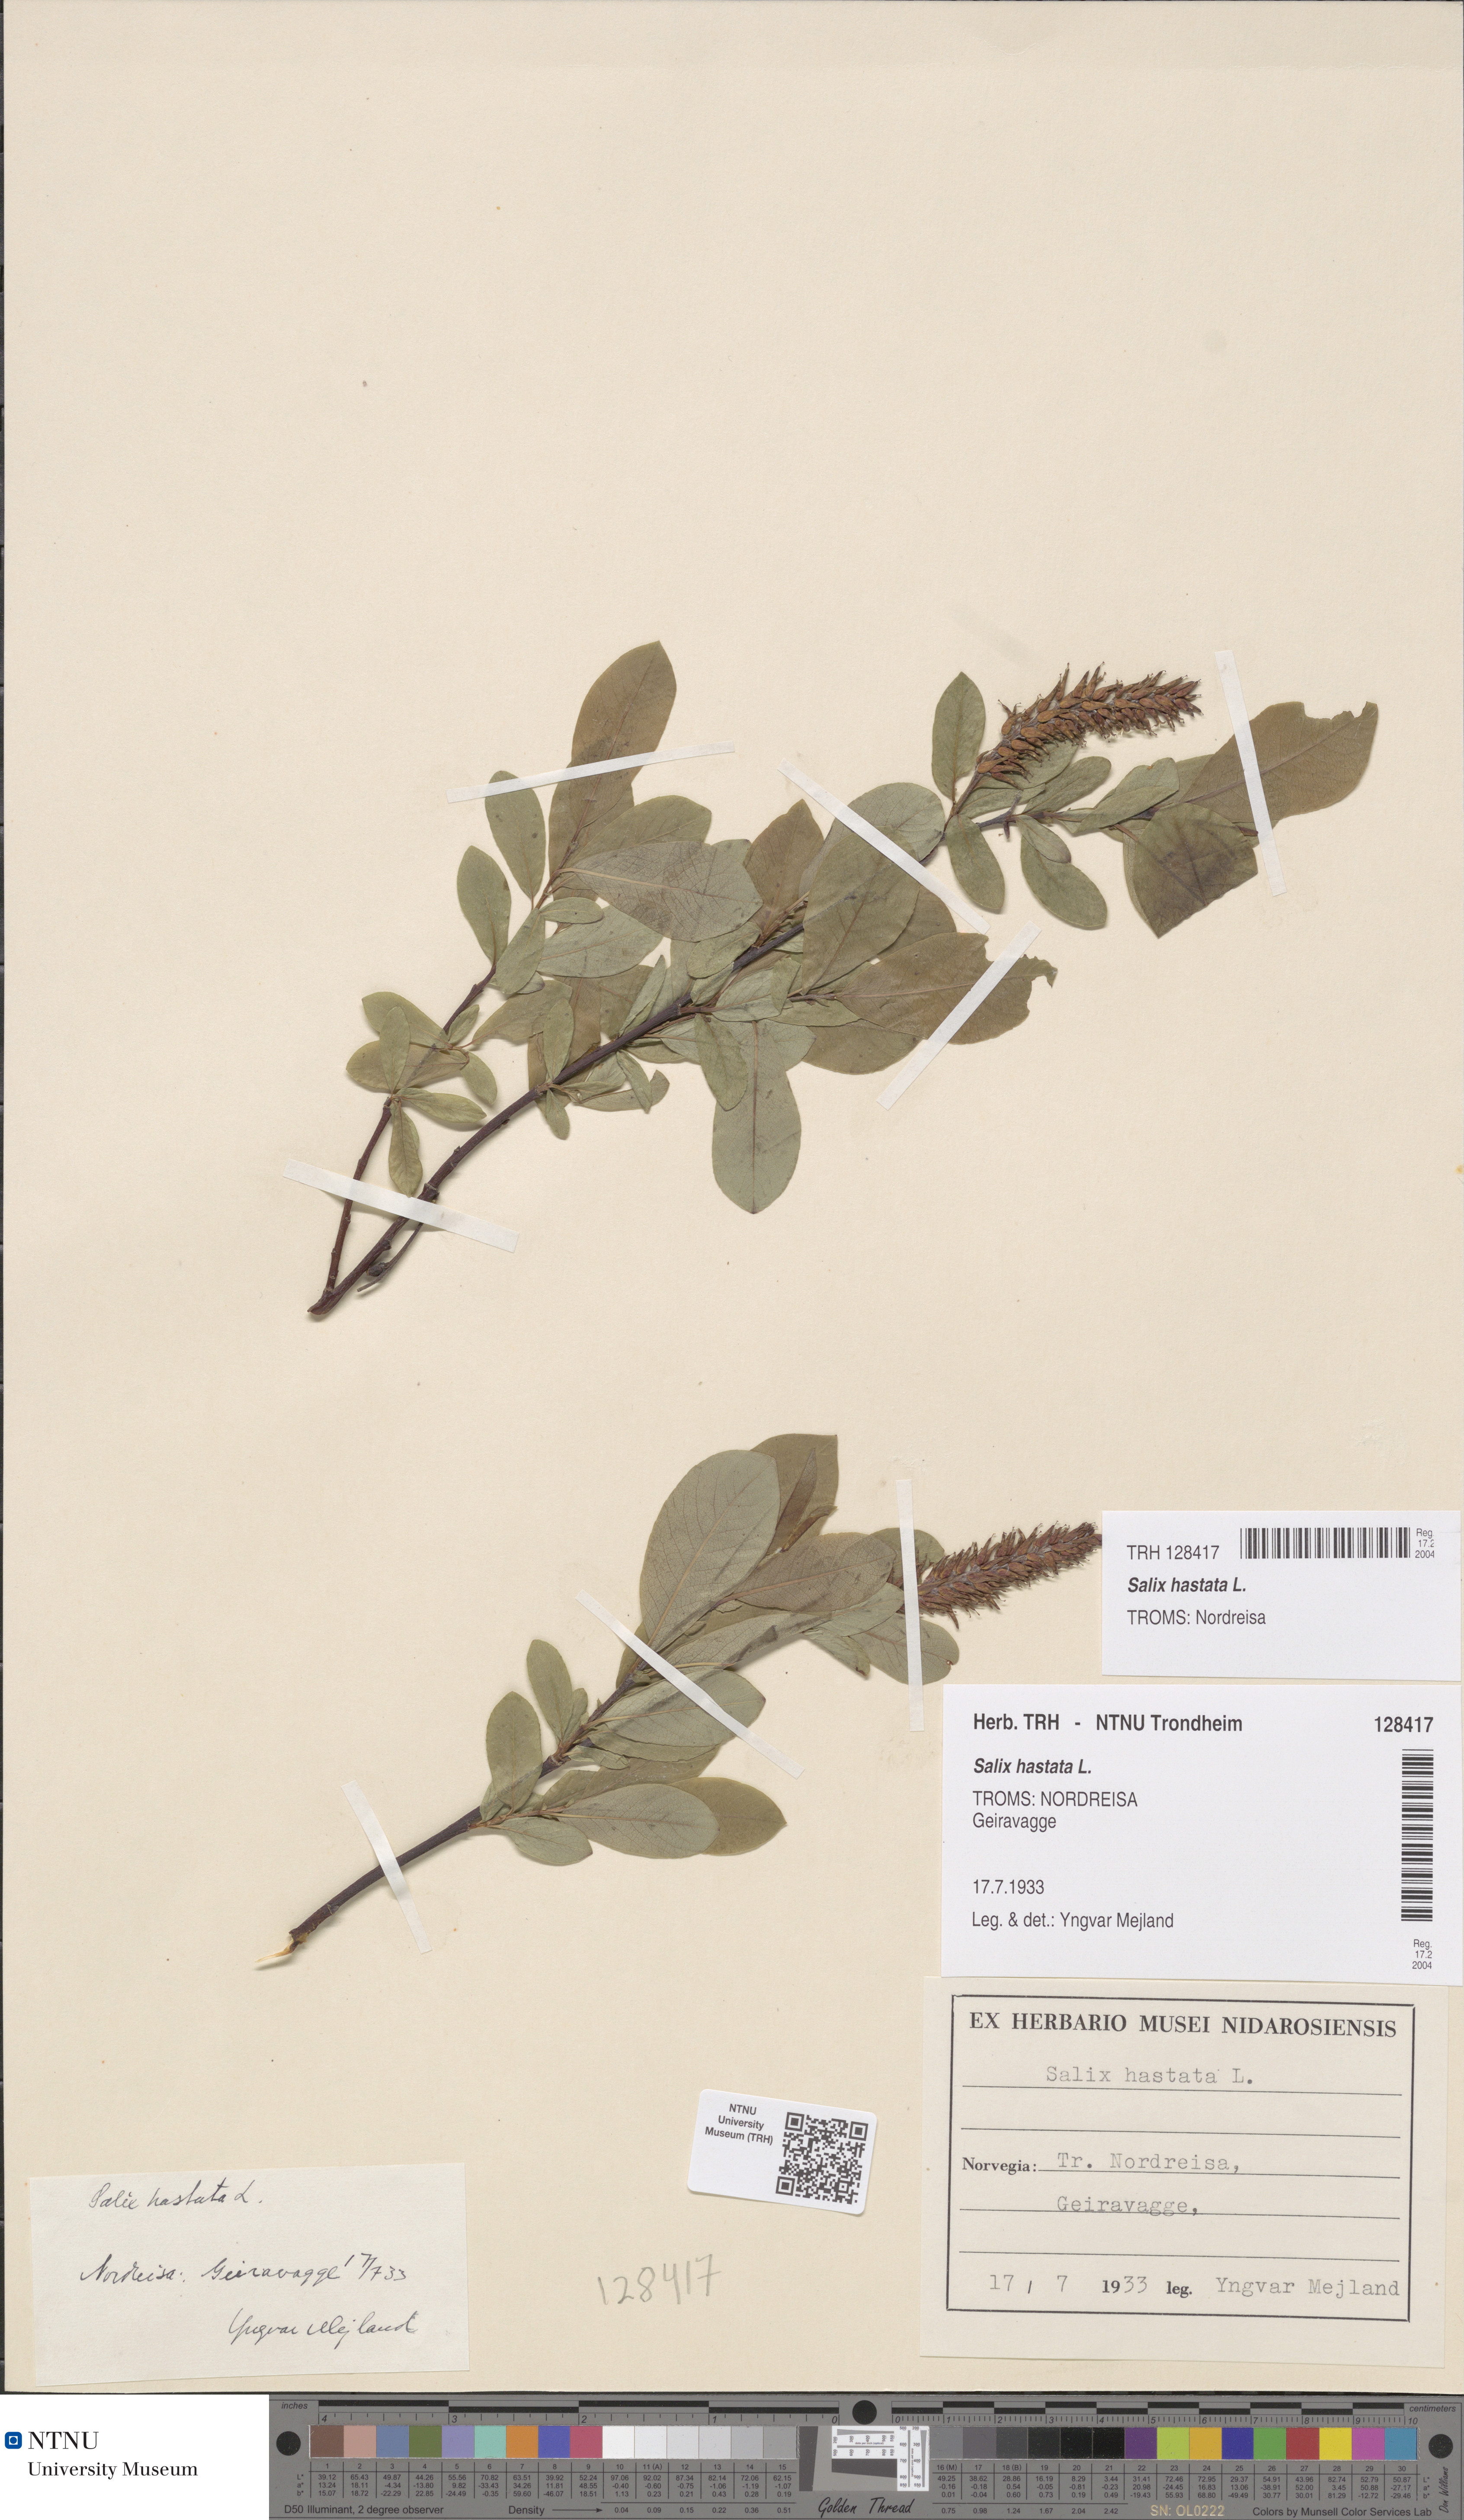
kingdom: Plantae
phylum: Tracheophyta
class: Magnoliopsida
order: Malpighiales
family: Salicaceae
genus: Salix
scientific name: Salix hastata
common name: Halberd willow
